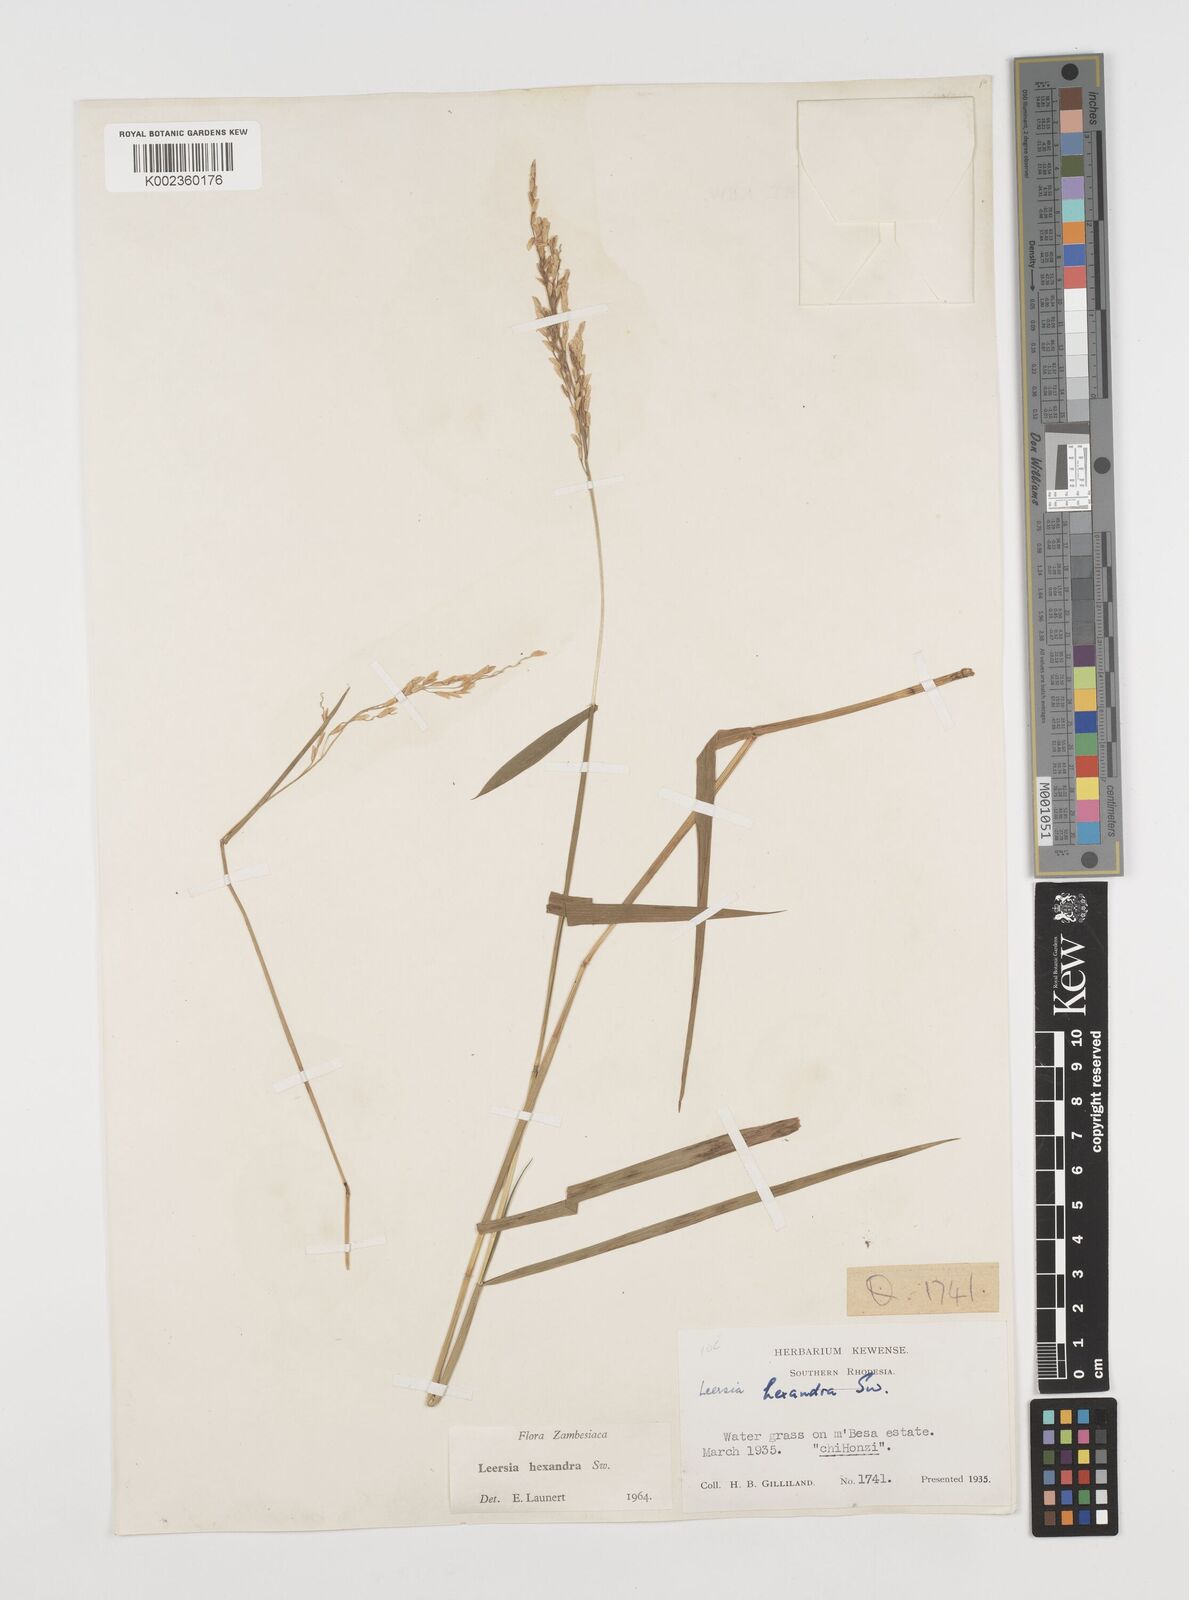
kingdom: Plantae
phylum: Tracheophyta
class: Liliopsida
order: Poales
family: Poaceae
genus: Leersia
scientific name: Leersia hexandra
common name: Southern cut grass
